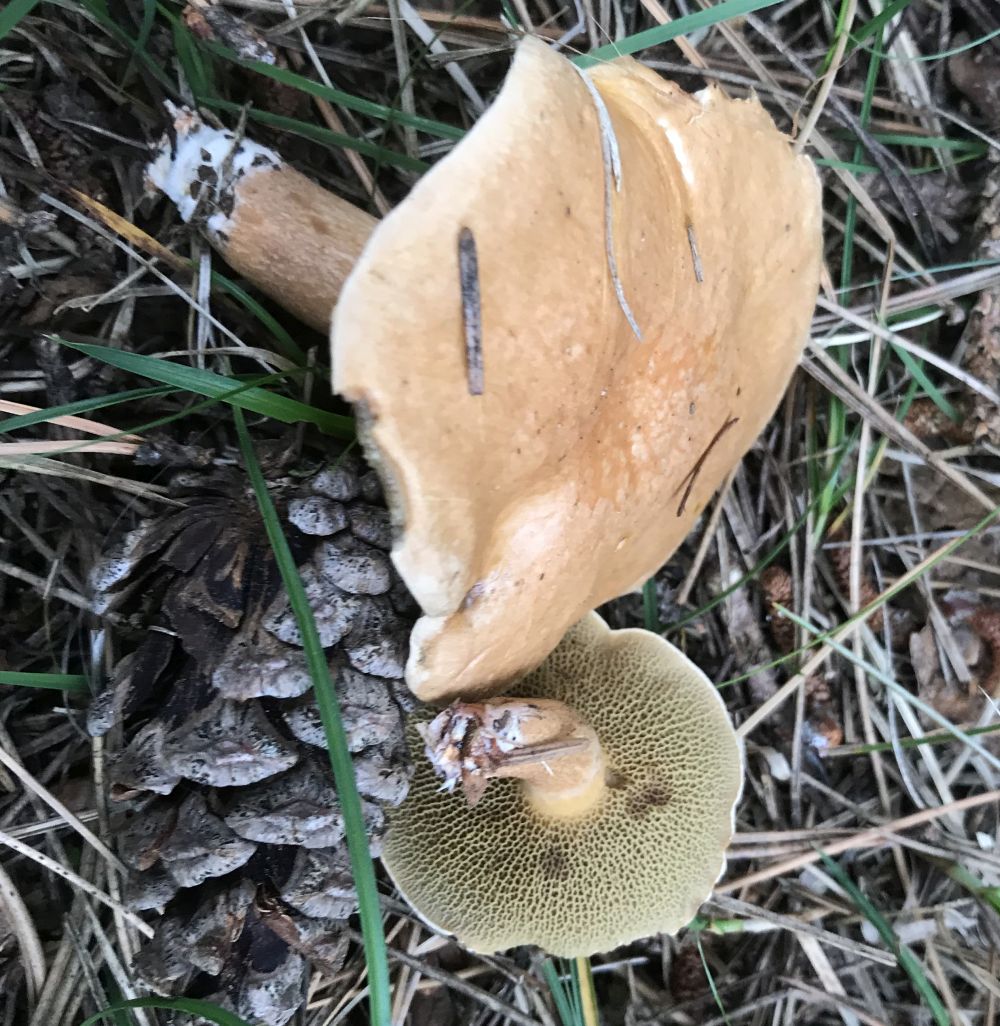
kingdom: Fungi
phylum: Basidiomycota
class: Agaricomycetes
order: Boletales
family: Suillaceae
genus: Suillus
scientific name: Suillus bovinus
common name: grovporet slimrørhat
